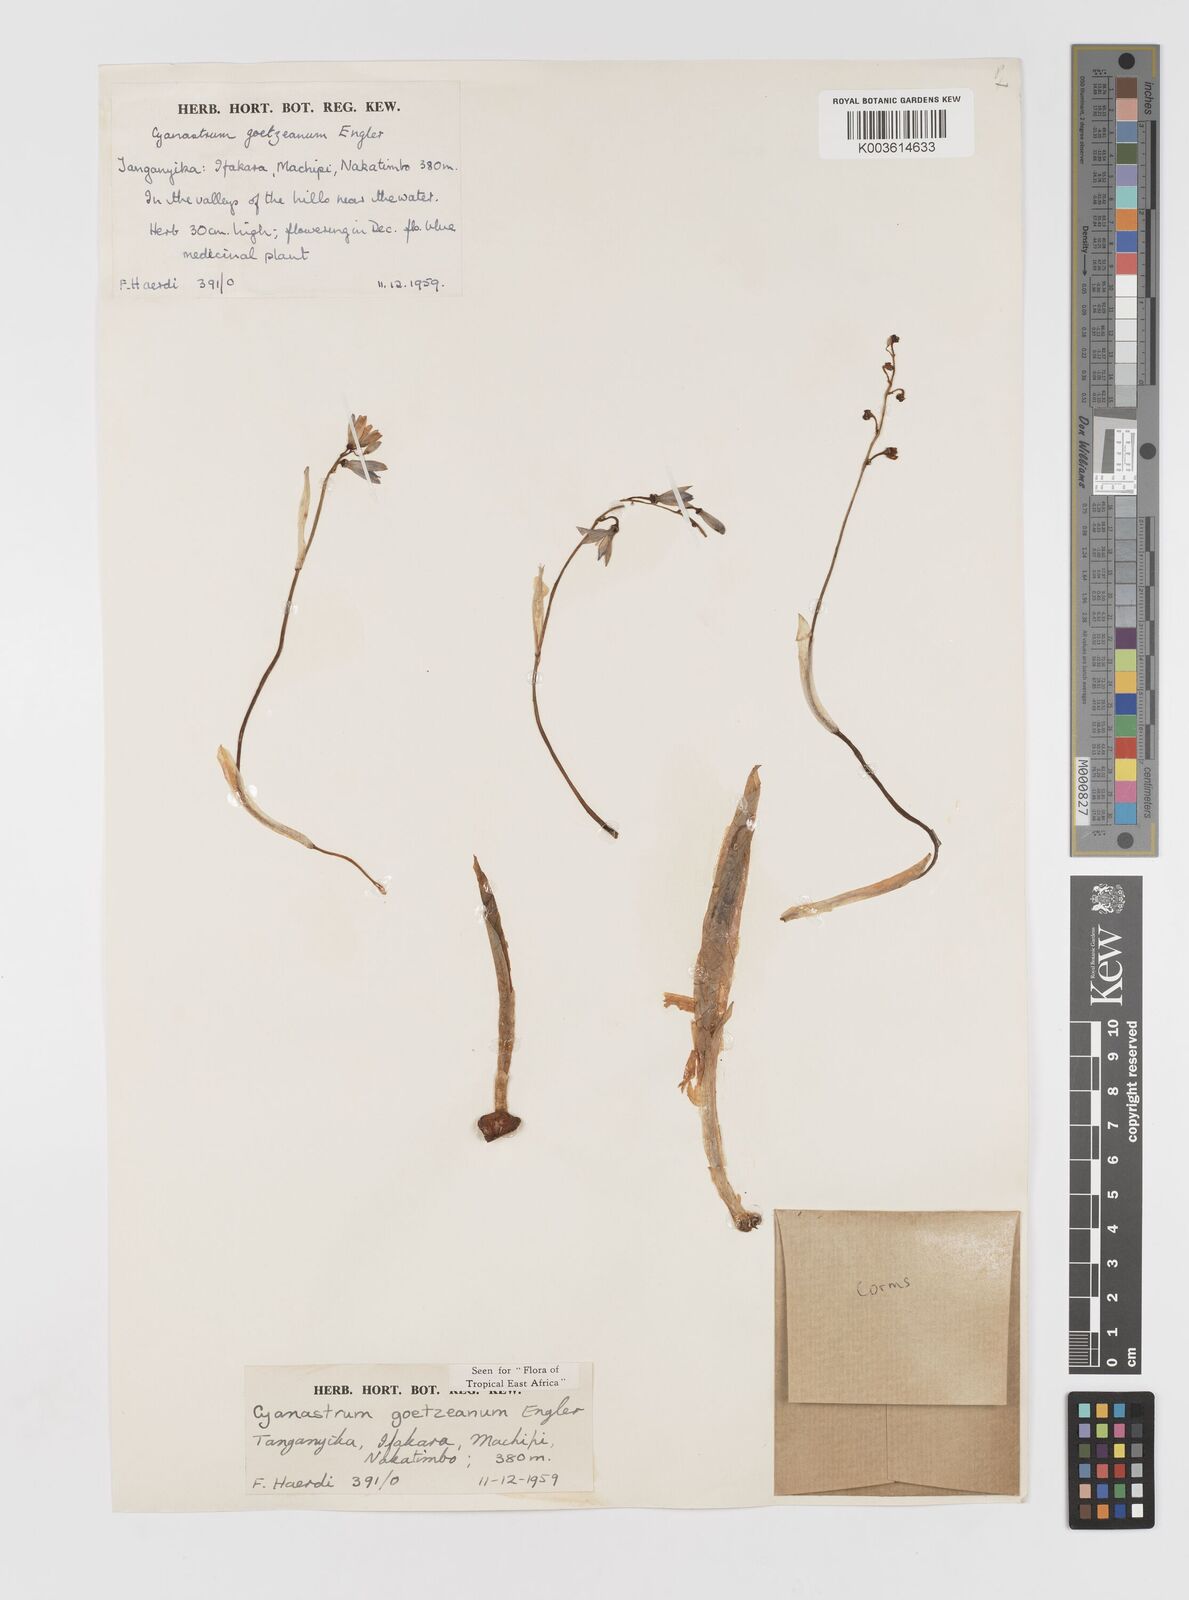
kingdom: Plantae
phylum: Tracheophyta
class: Liliopsida
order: Asparagales
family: Tecophilaeaceae
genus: Cyanastrum
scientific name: Cyanastrum goetzeanum
